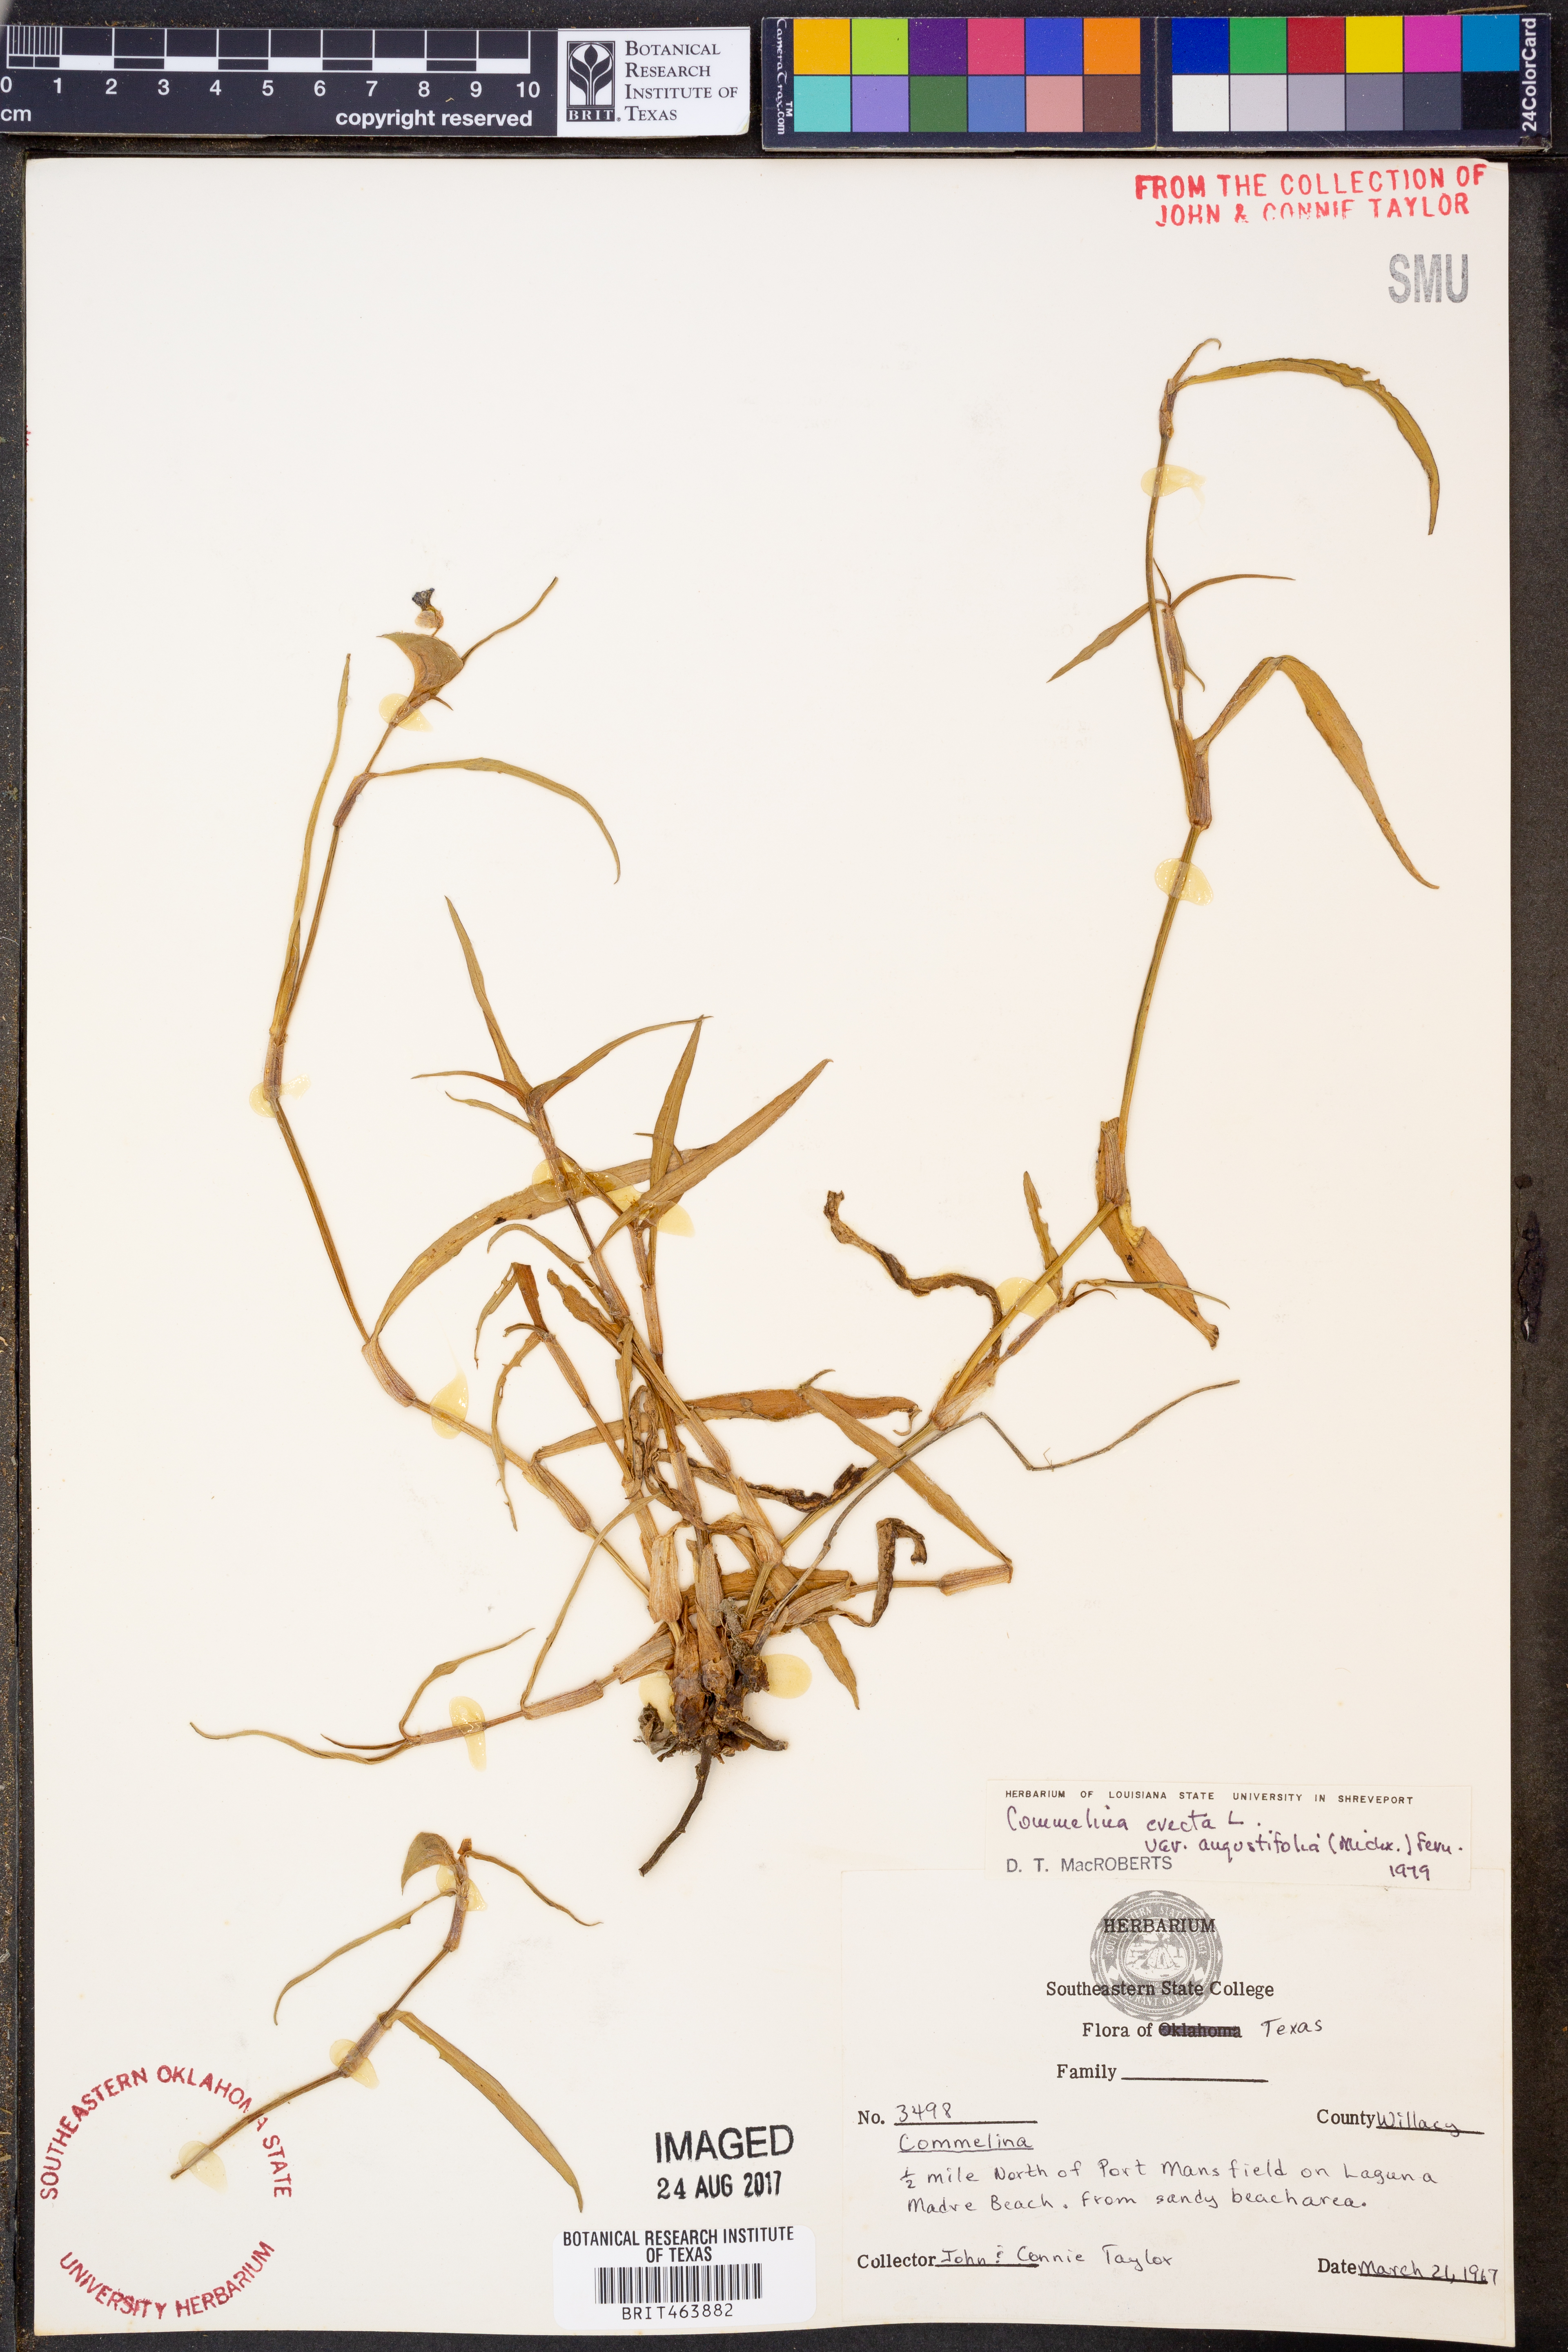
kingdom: Plantae
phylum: Tracheophyta
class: Liliopsida
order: Commelinales
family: Commelinaceae
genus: Commelina
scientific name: Commelina erecta
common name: Blousel blommetjie
